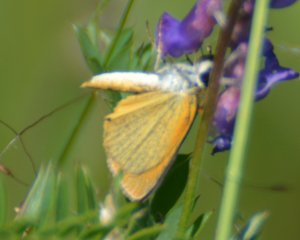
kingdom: Animalia
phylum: Arthropoda
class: Insecta
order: Lepidoptera
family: Hesperiidae
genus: Ancyloxypha
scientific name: Ancyloxypha numitor
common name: Least Skipper
